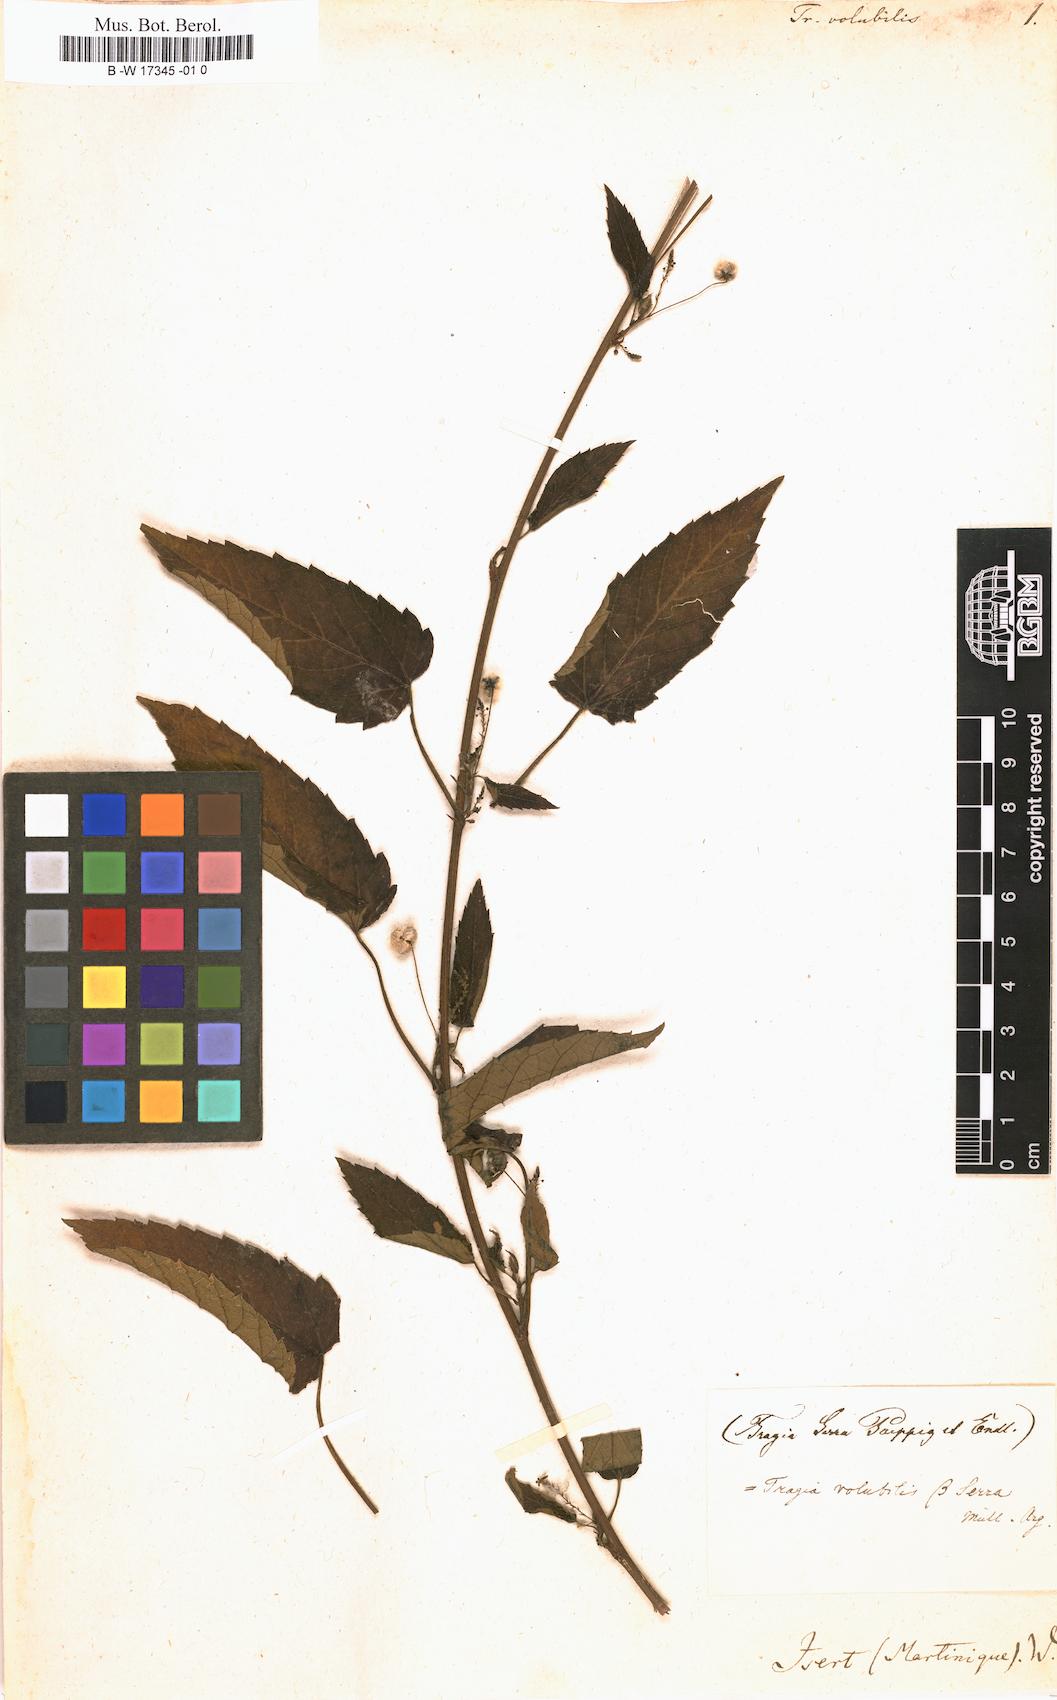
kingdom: Plantae
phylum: Tracheophyta
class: Magnoliopsida
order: Malpighiales
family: Euphorbiaceae
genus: Tragia
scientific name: Tragia volubilis
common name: Twining cow-itch
